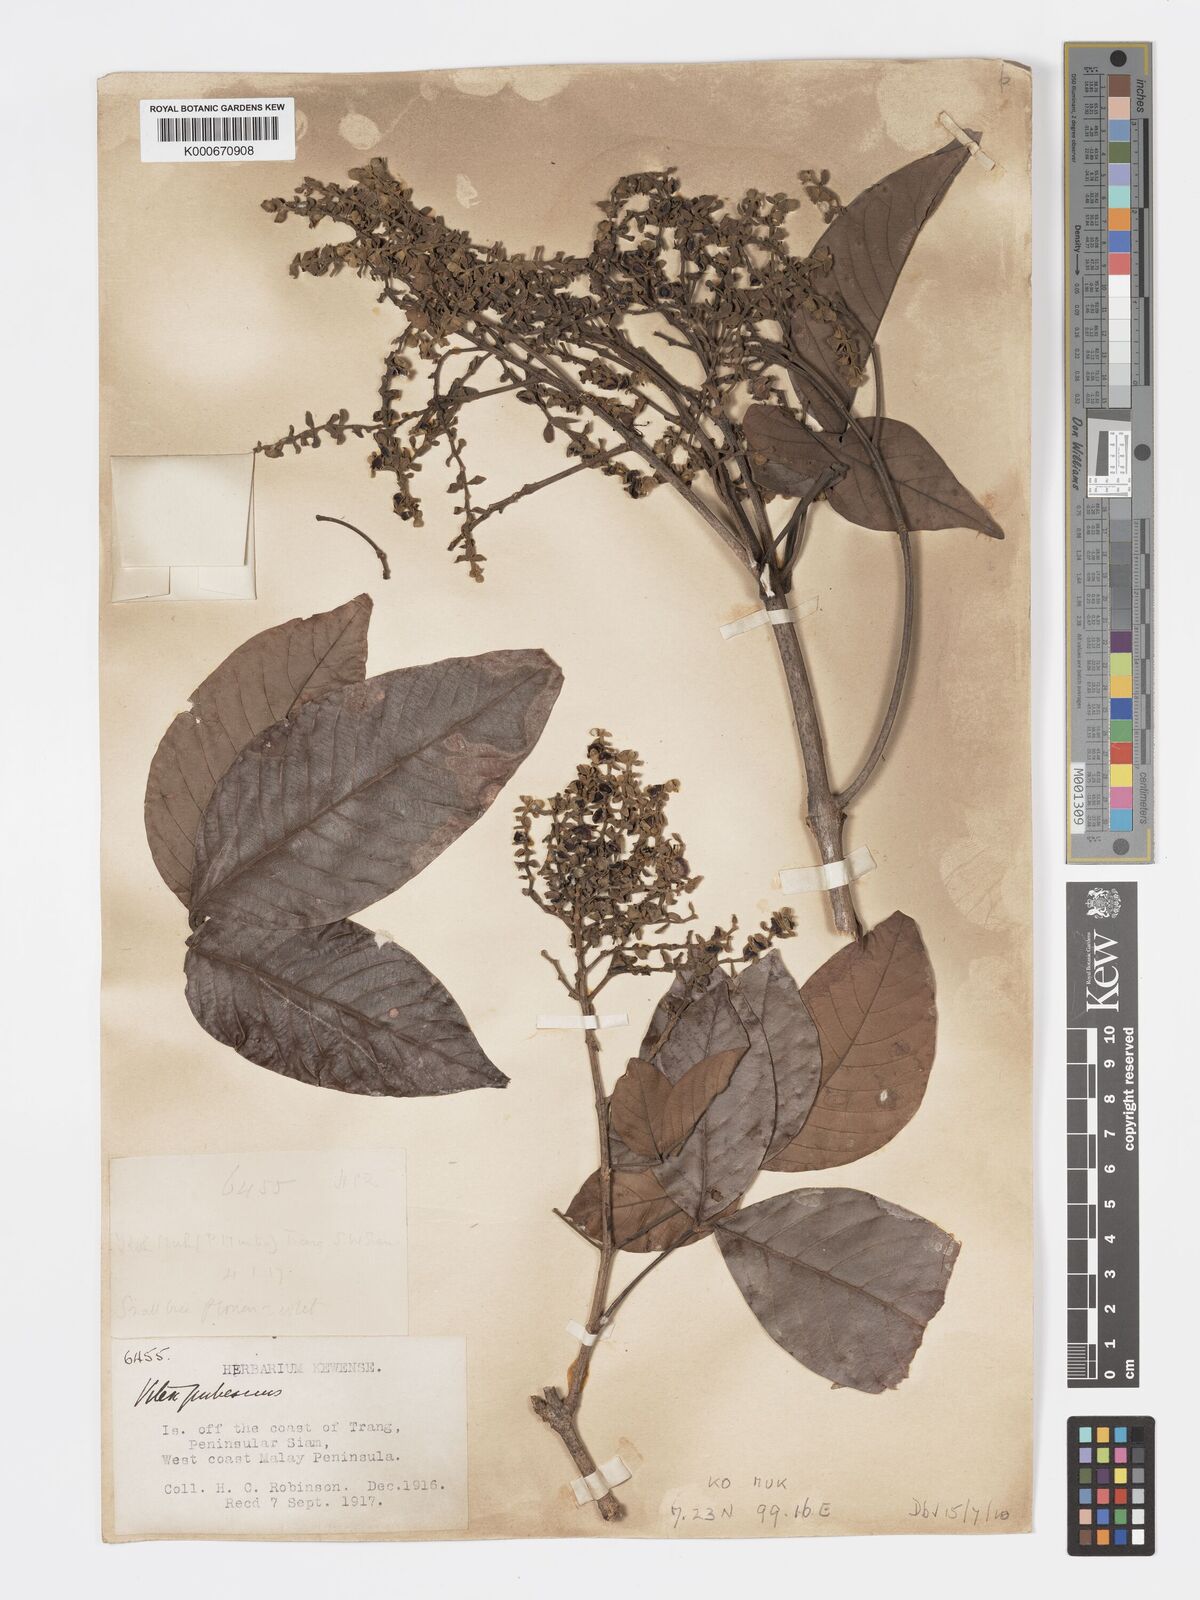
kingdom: Plantae
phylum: Tracheophyta
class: Magnoliopsida
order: Lamiales
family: Lamiaceae
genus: Vitex
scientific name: Vitex pinnata
